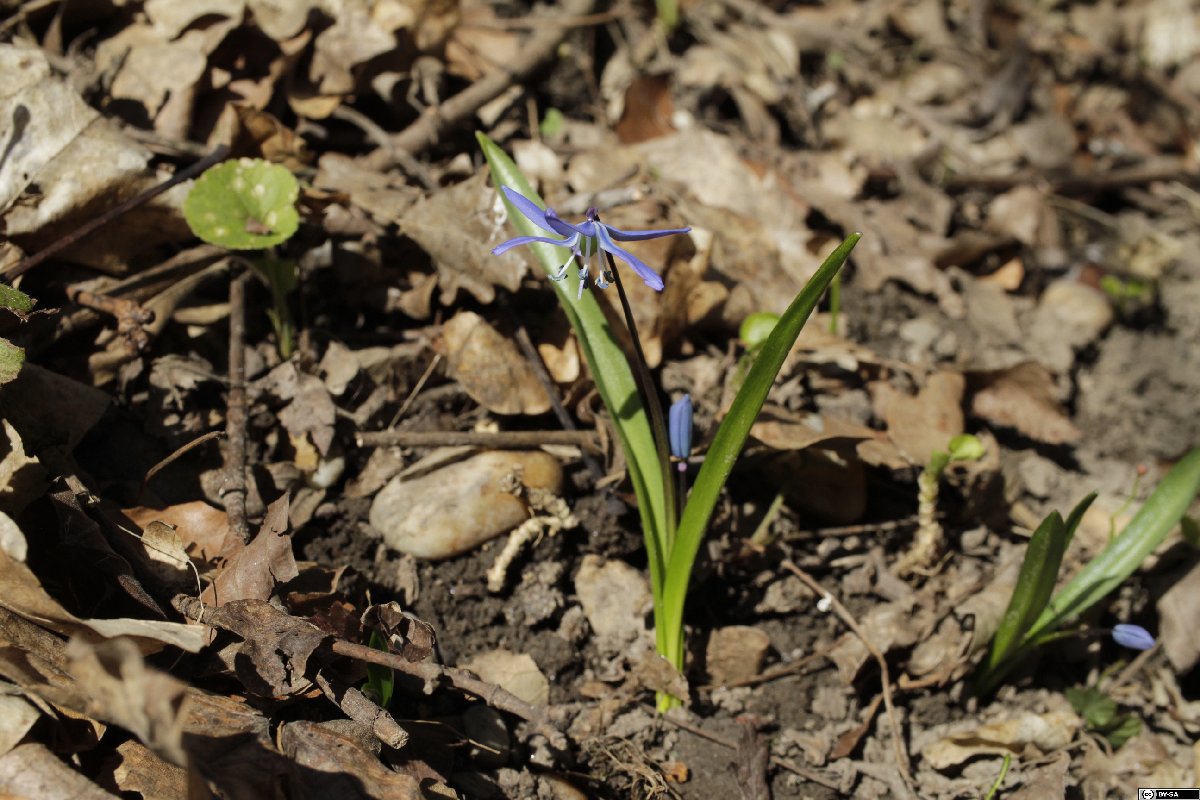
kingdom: Plantae
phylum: Tracheophyta
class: Liliopsida
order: Asparagales
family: Asparagaceae
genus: Scilla
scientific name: Scilla siberica
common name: Siberian squill
